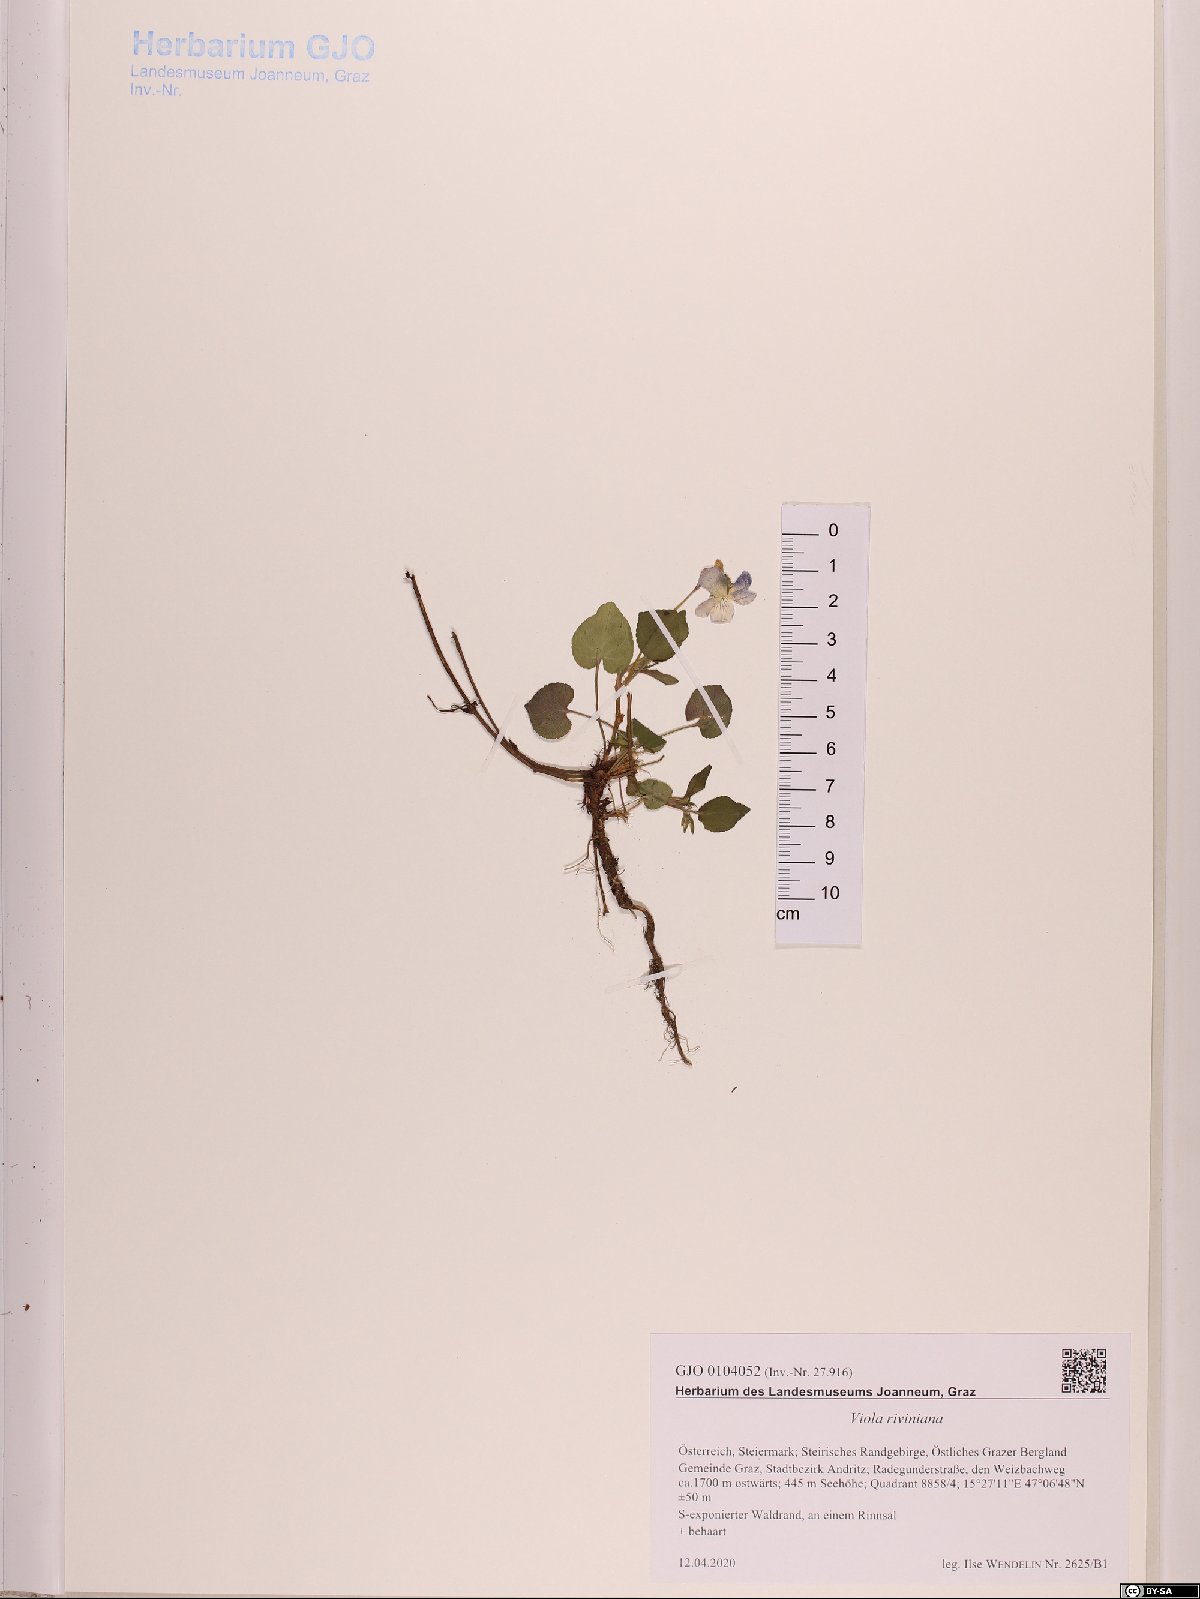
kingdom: Plantae
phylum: Tracheophyta
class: Magnoliopsida
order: Malpighiales
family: Violaceae
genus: Viola
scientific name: Viola riviniana
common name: Common dog-violet
